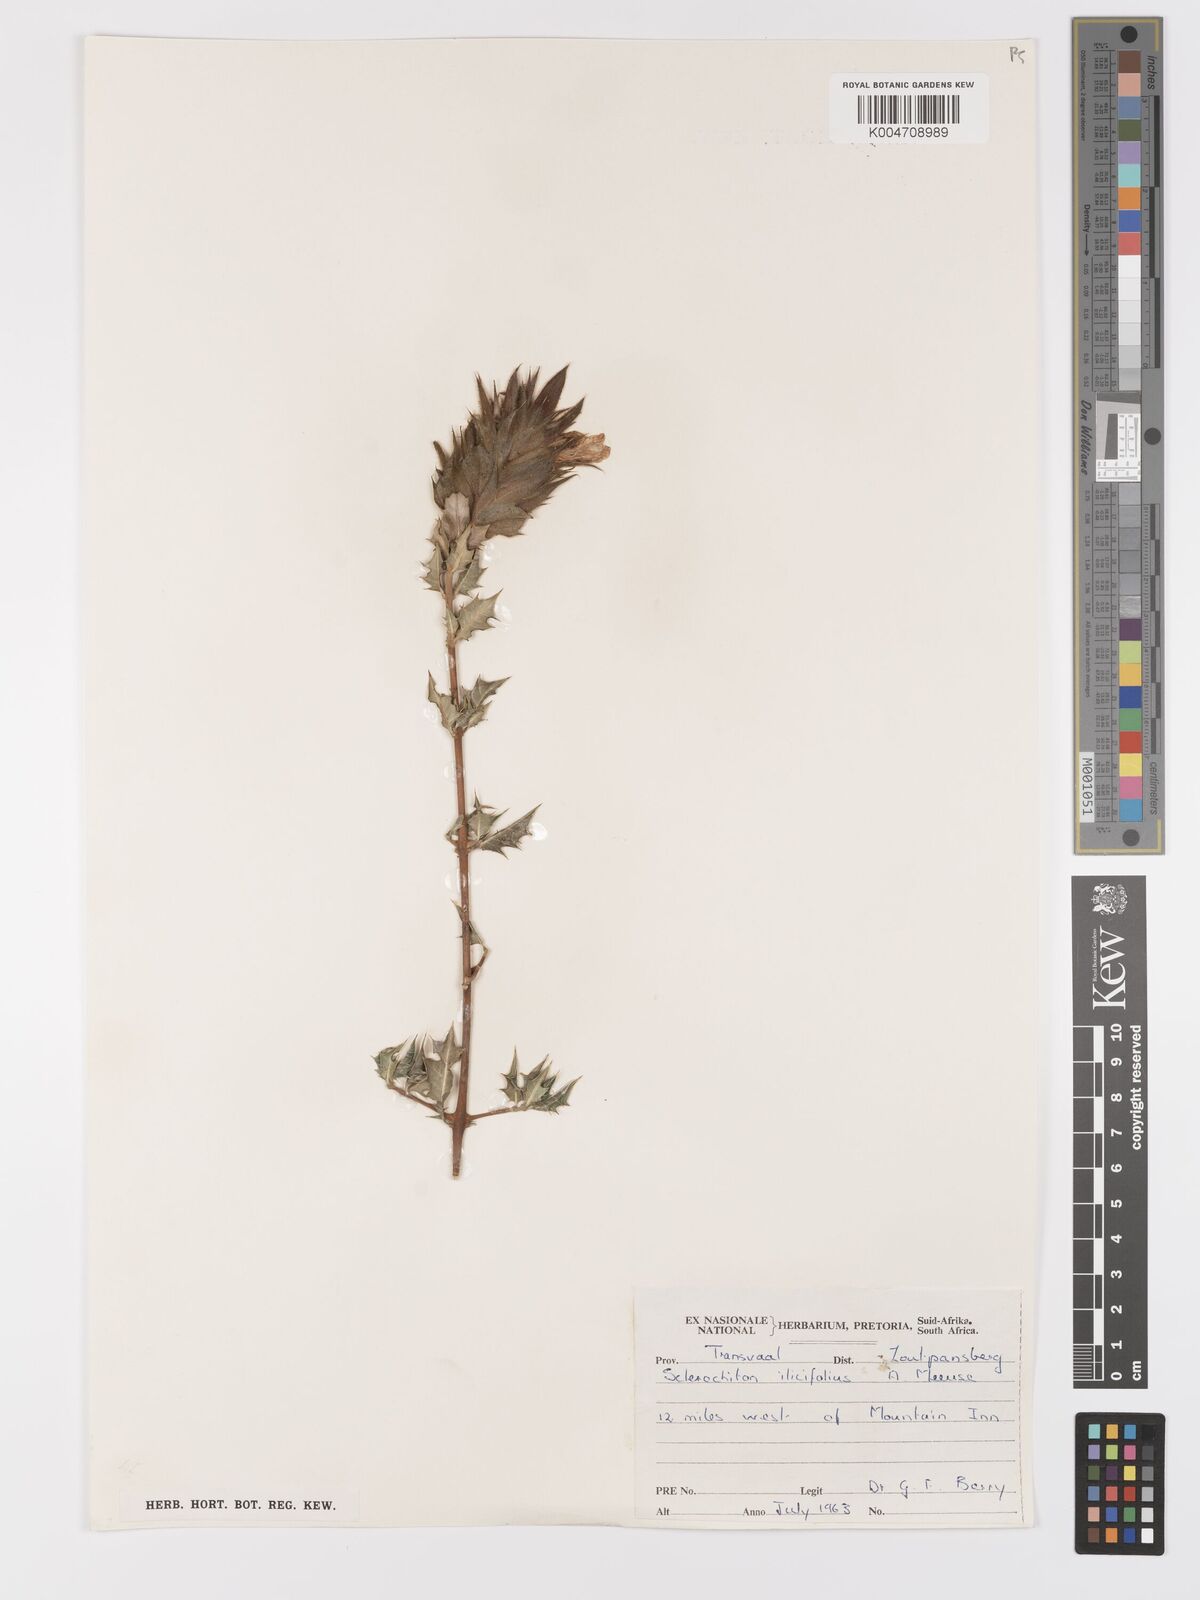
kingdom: Plantae
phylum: Tracheophyta
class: Magnoliopsida
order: Lamiales
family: Acanthaceae
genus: Sclerochiton
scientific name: Sclerochiton ilicifolius
